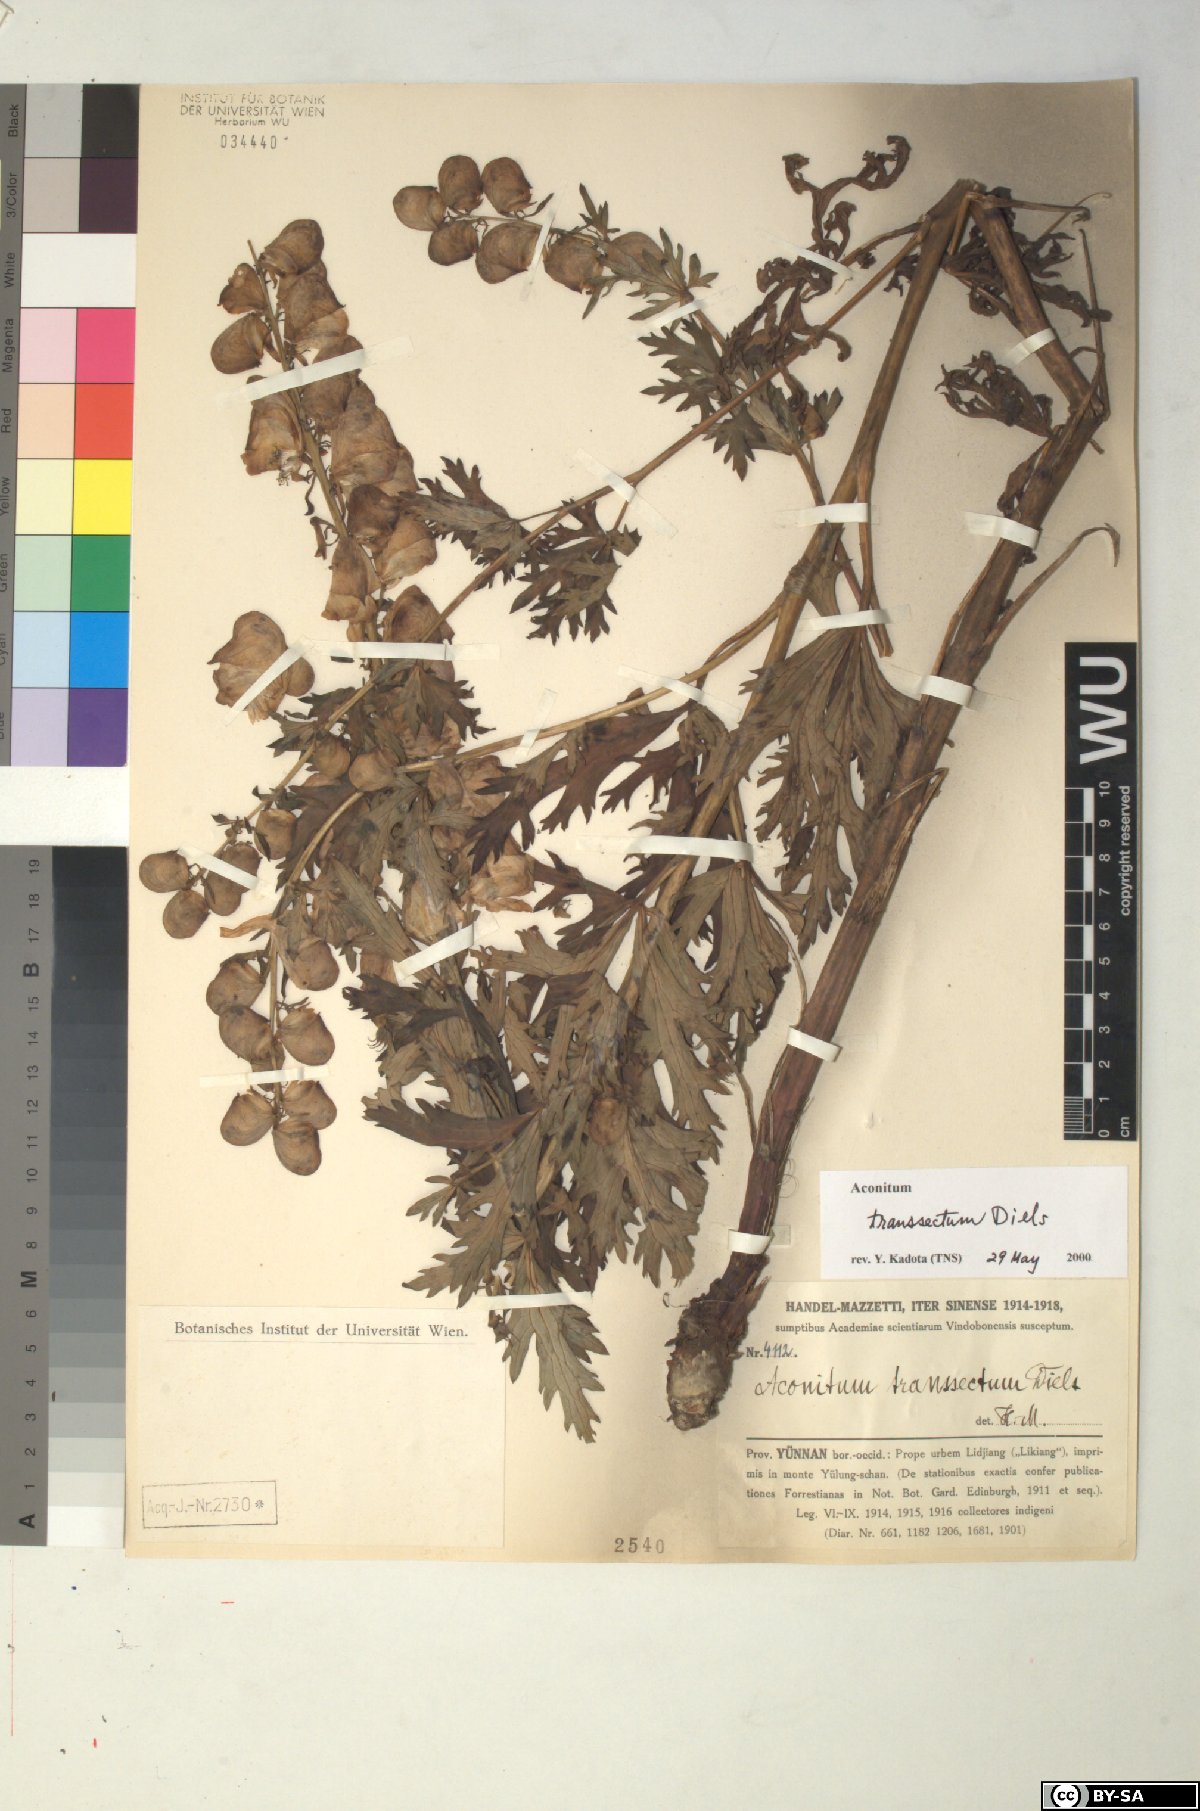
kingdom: Plantae
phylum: Tracheophyta
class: Magnoliopsida
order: Ranunculales
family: Ranunculaceae
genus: Aconitum
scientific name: Aconitum transsectum
